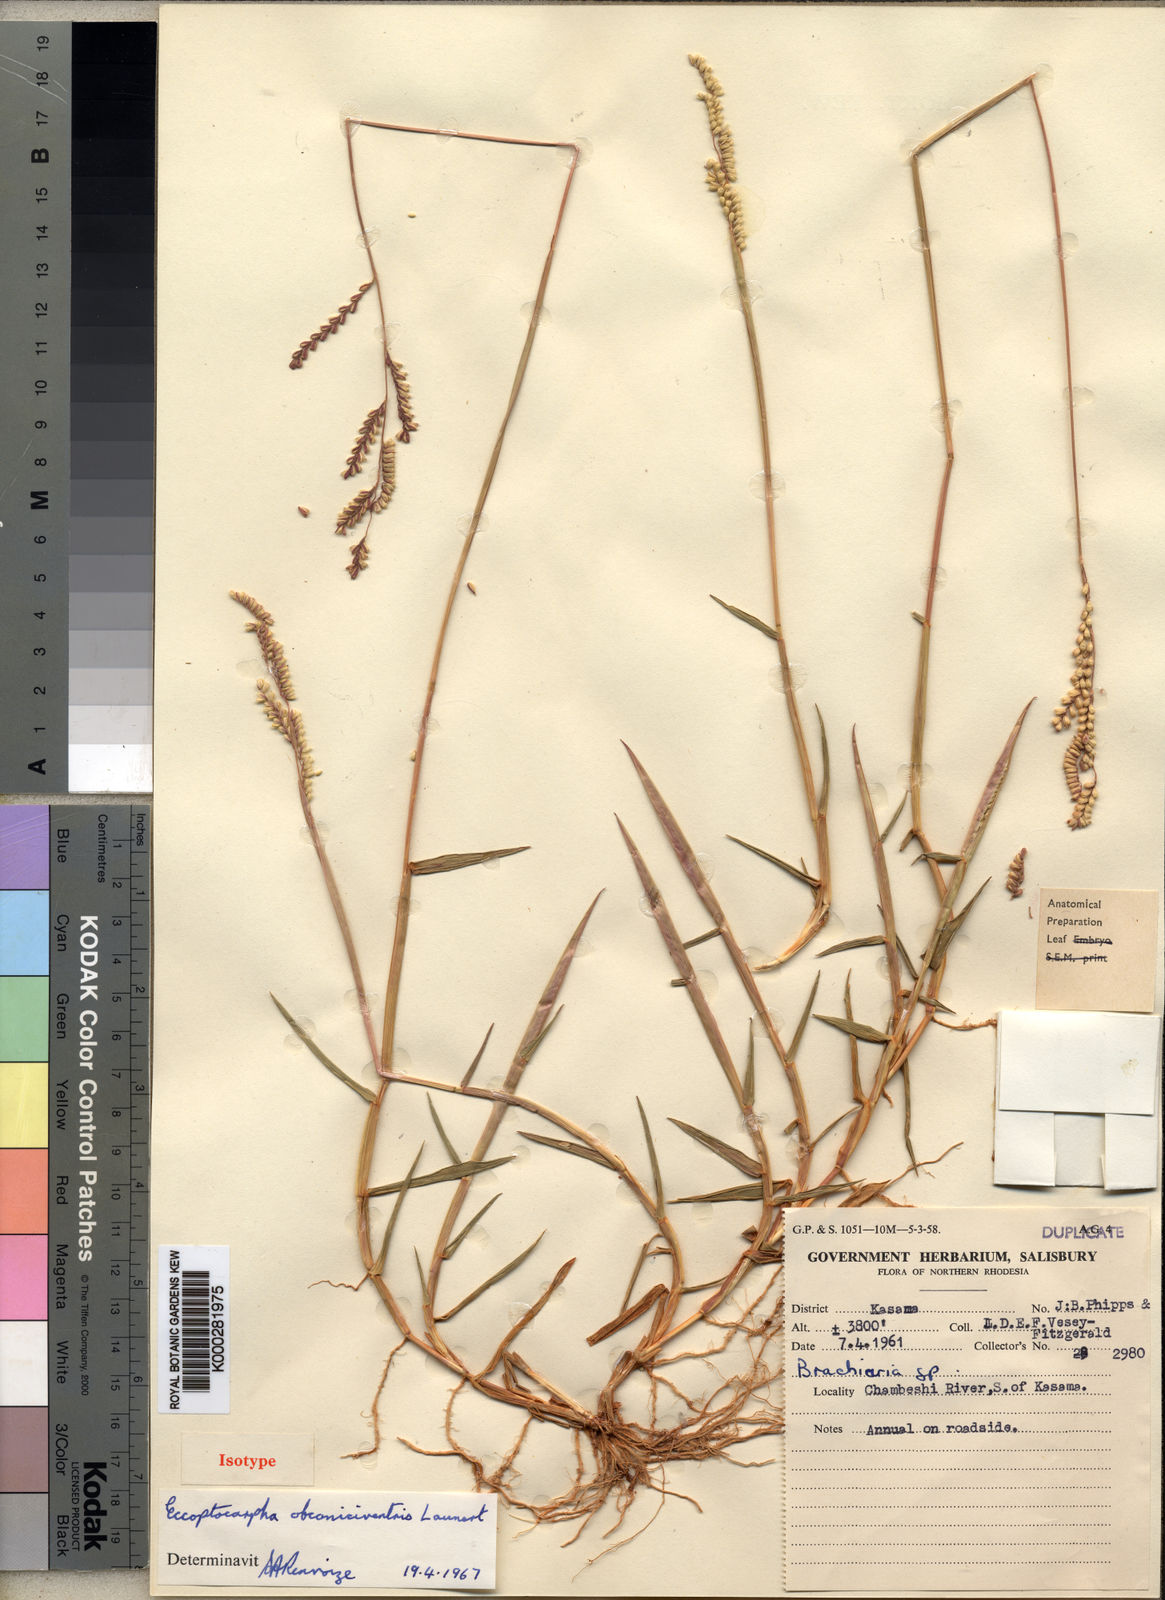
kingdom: Plantae
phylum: Tracheophyta
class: Liliopsida
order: Poales
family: Poaceae
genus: Eccoptocarpha
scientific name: Eccoptocarpha obconiciventris
